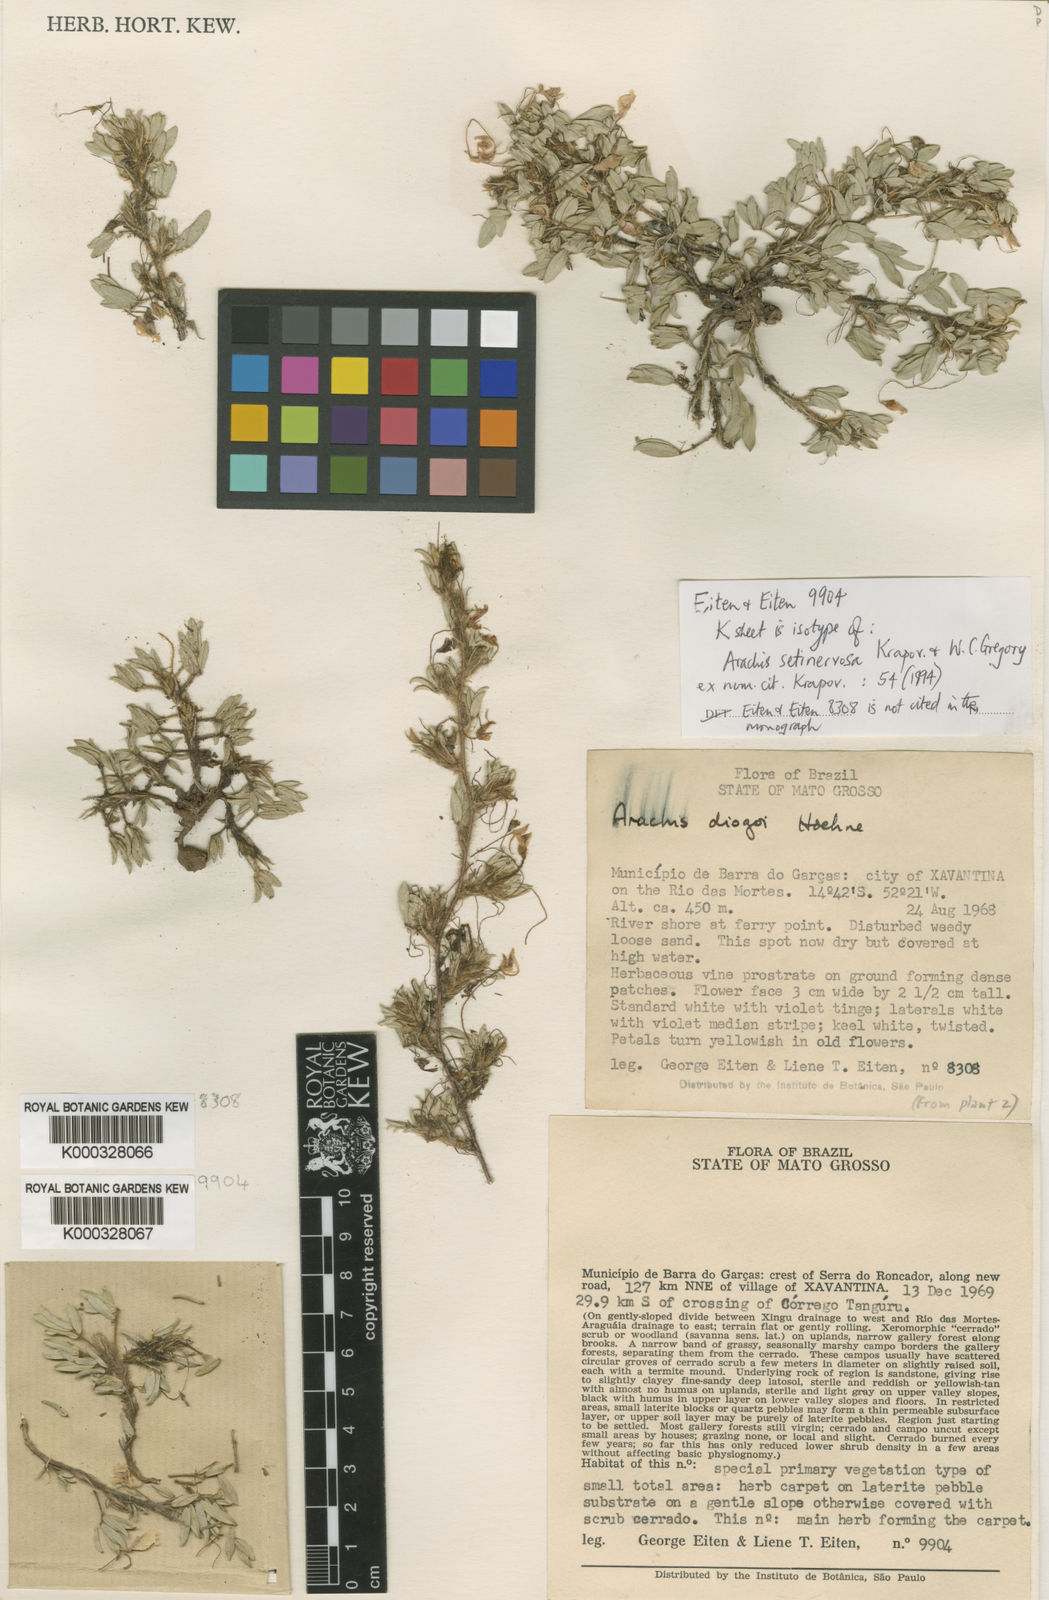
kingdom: Plantae
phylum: Tracheophyta
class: Magnoliopsida
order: Fabales
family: Fabaceae
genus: Arachis
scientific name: Arachis setinervosa
